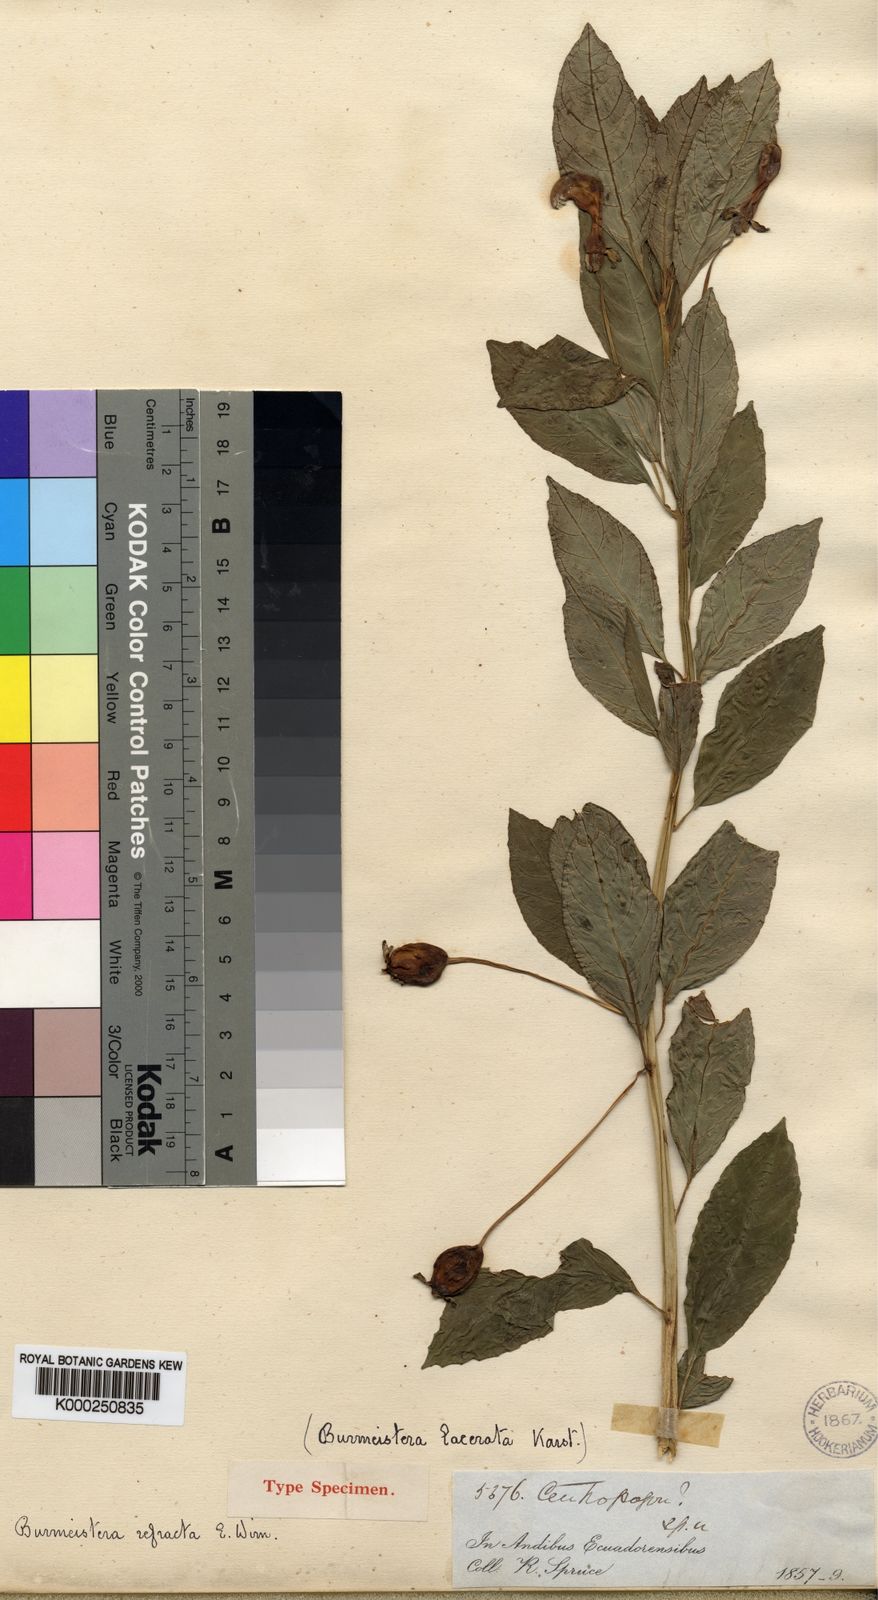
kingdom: Plantae
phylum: Tracheophyta
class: Magnoliopsida
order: Asterales
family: Campanulaceae
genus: Burmeistera
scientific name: Burmeistera refracta
